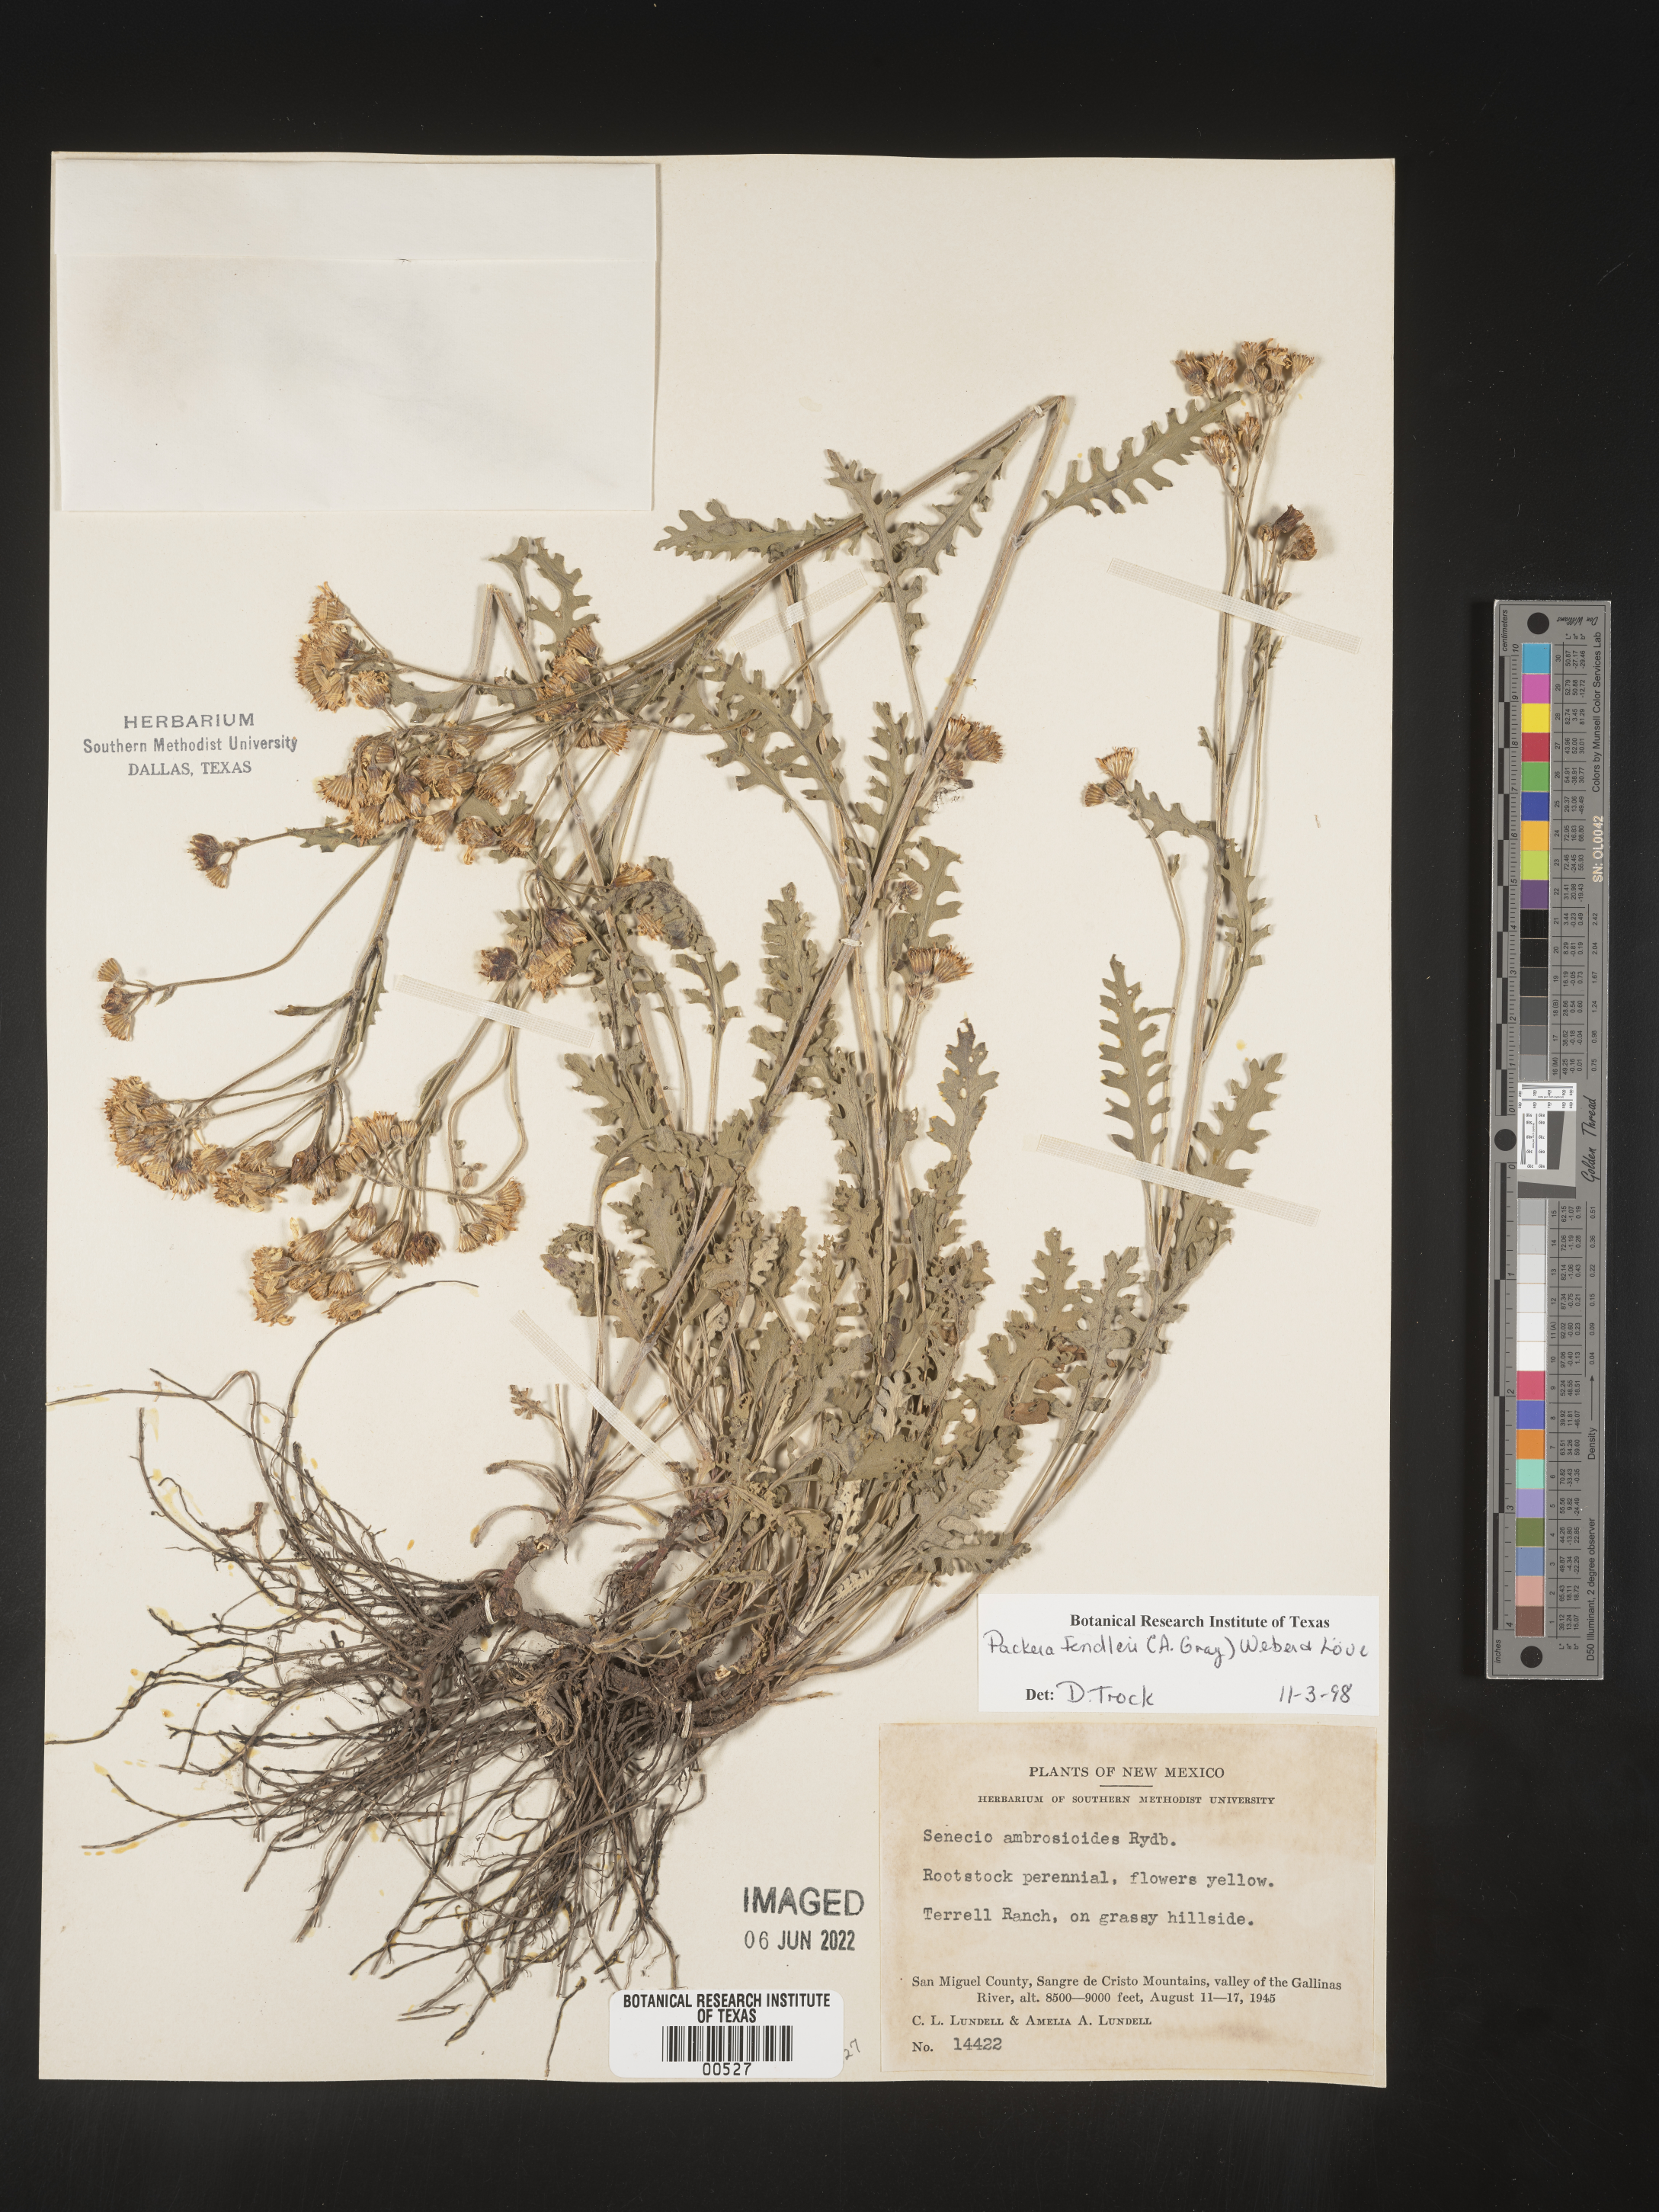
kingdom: Plantae
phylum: Tracheophyta
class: Magnoliopsida
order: Asterales
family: Asteraceae
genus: Packera
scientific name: Packera fendleri
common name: Notch-leaf butterweed
